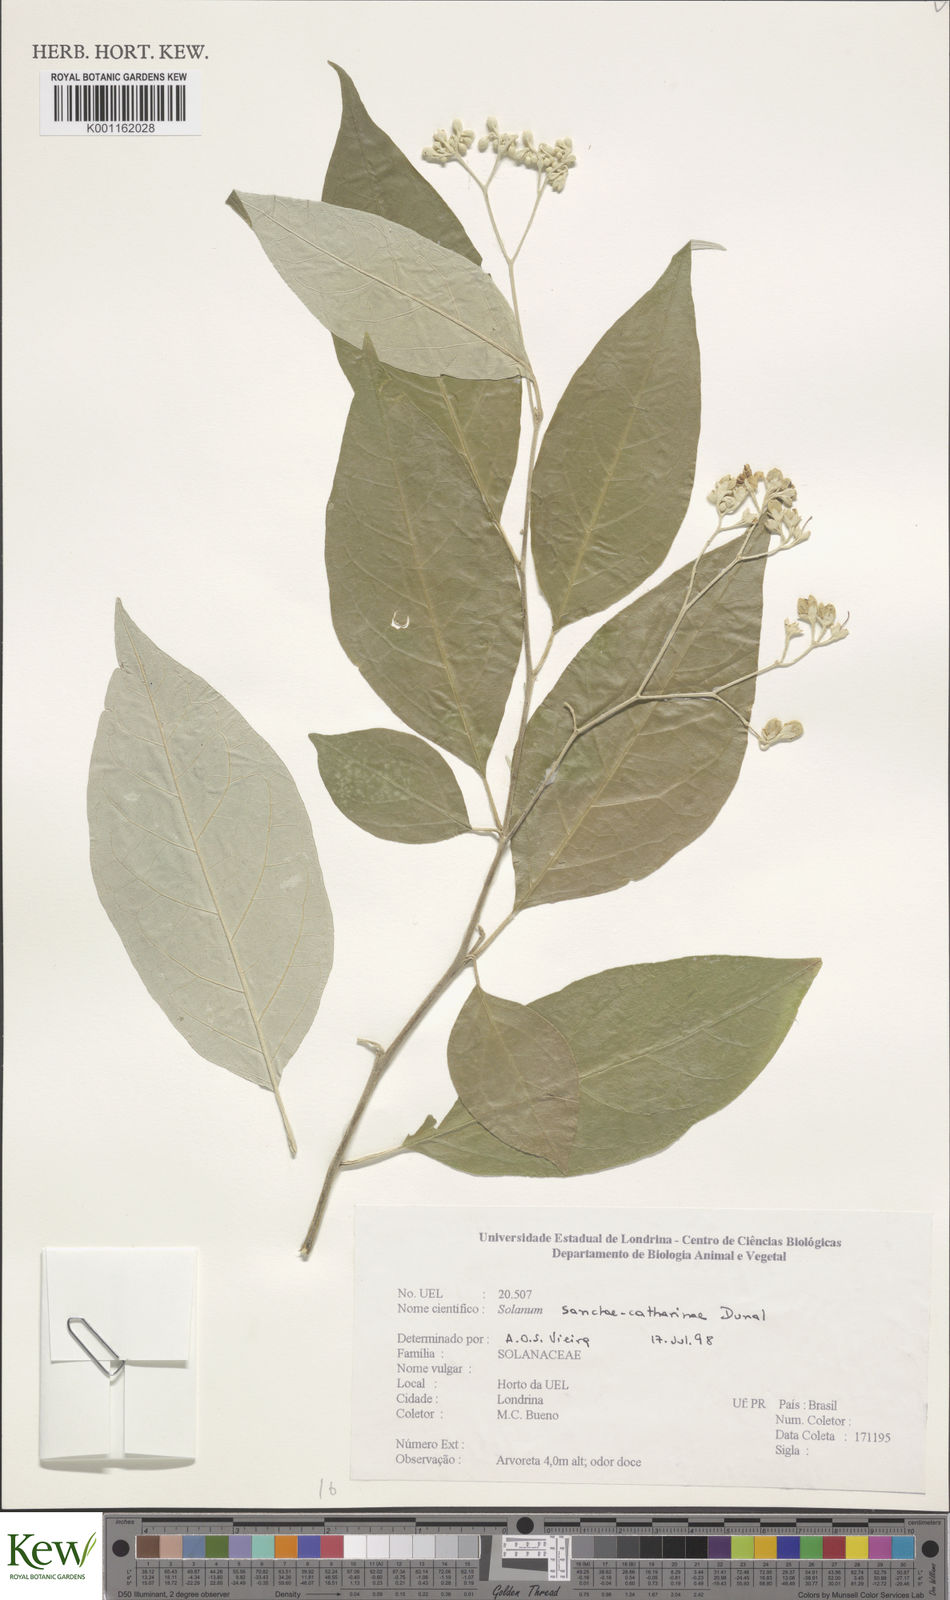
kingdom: Plantae
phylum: Tracheophyta
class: Magnoliopsida
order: Solanales
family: Solanaceae
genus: Solanum
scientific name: Solanum sanctae-catharinae
